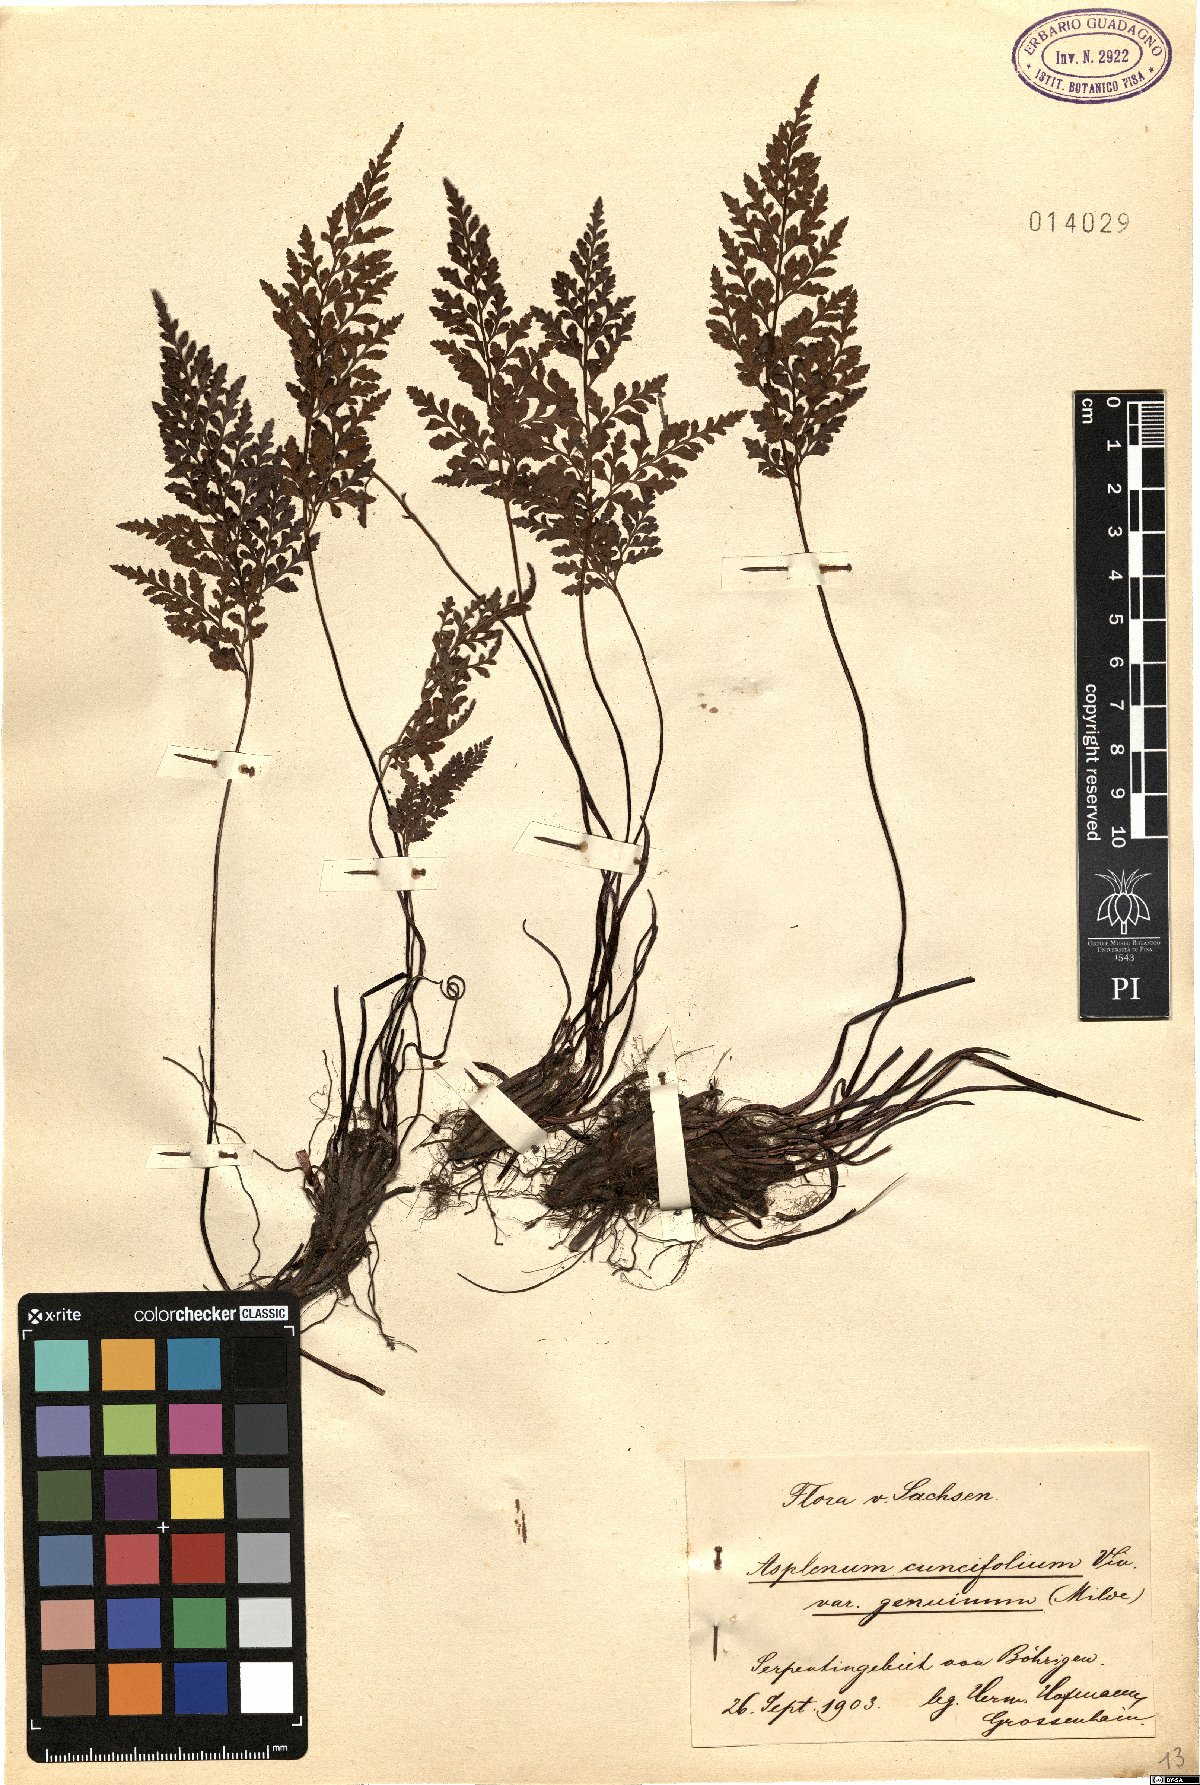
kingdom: Plantae
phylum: Tracheophyta
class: Polypodiopsida
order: Polypodiales
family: Aspleniaceae
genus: Asplenium
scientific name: Asplenium cuneifolium
